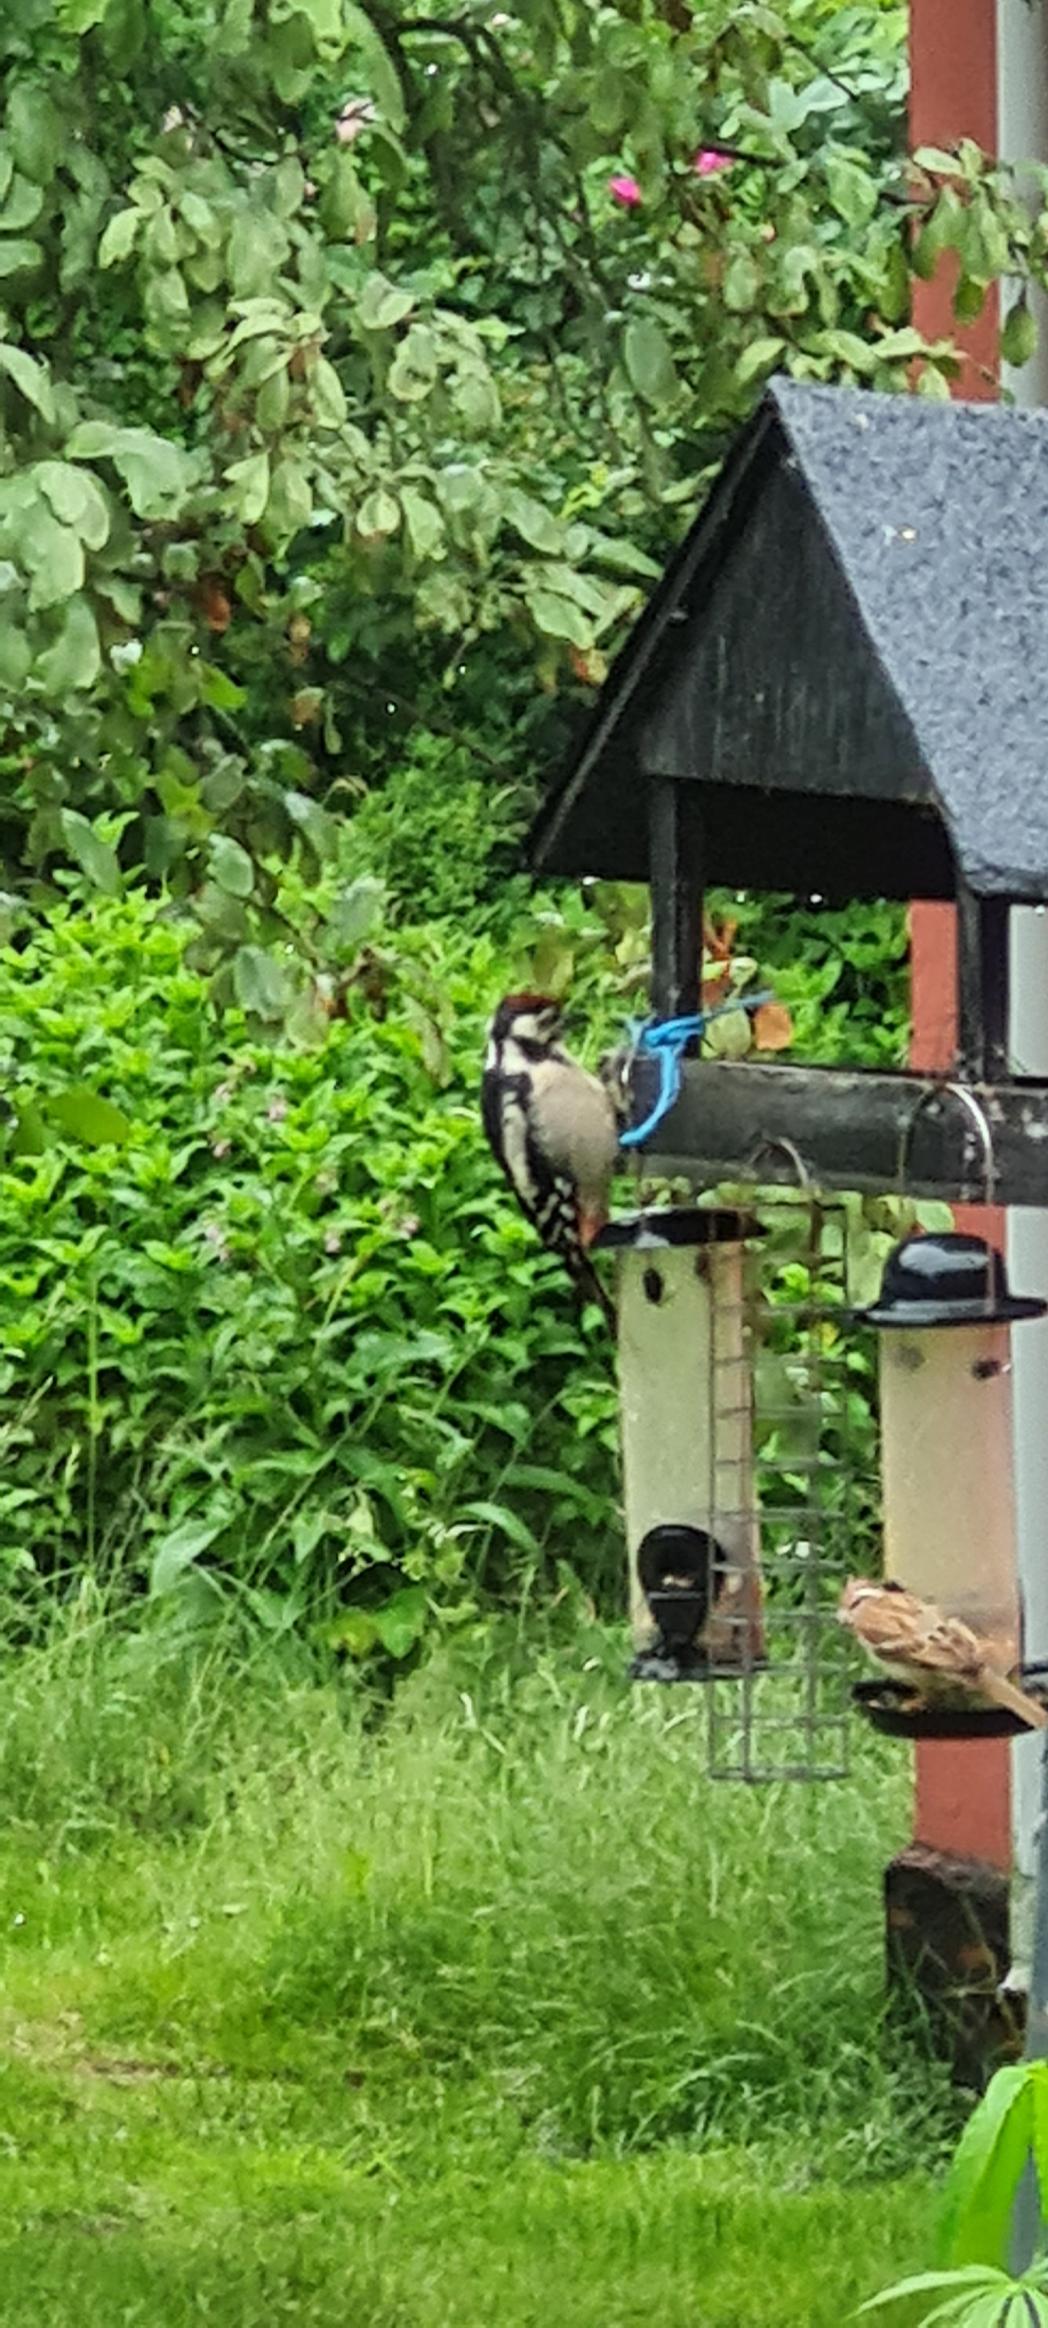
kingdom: Animalia
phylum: Chordata
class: Aves
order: Piciformes
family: Picidae
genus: Dendrocopos
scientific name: Dendrocopos major
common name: Stor flagspætte
